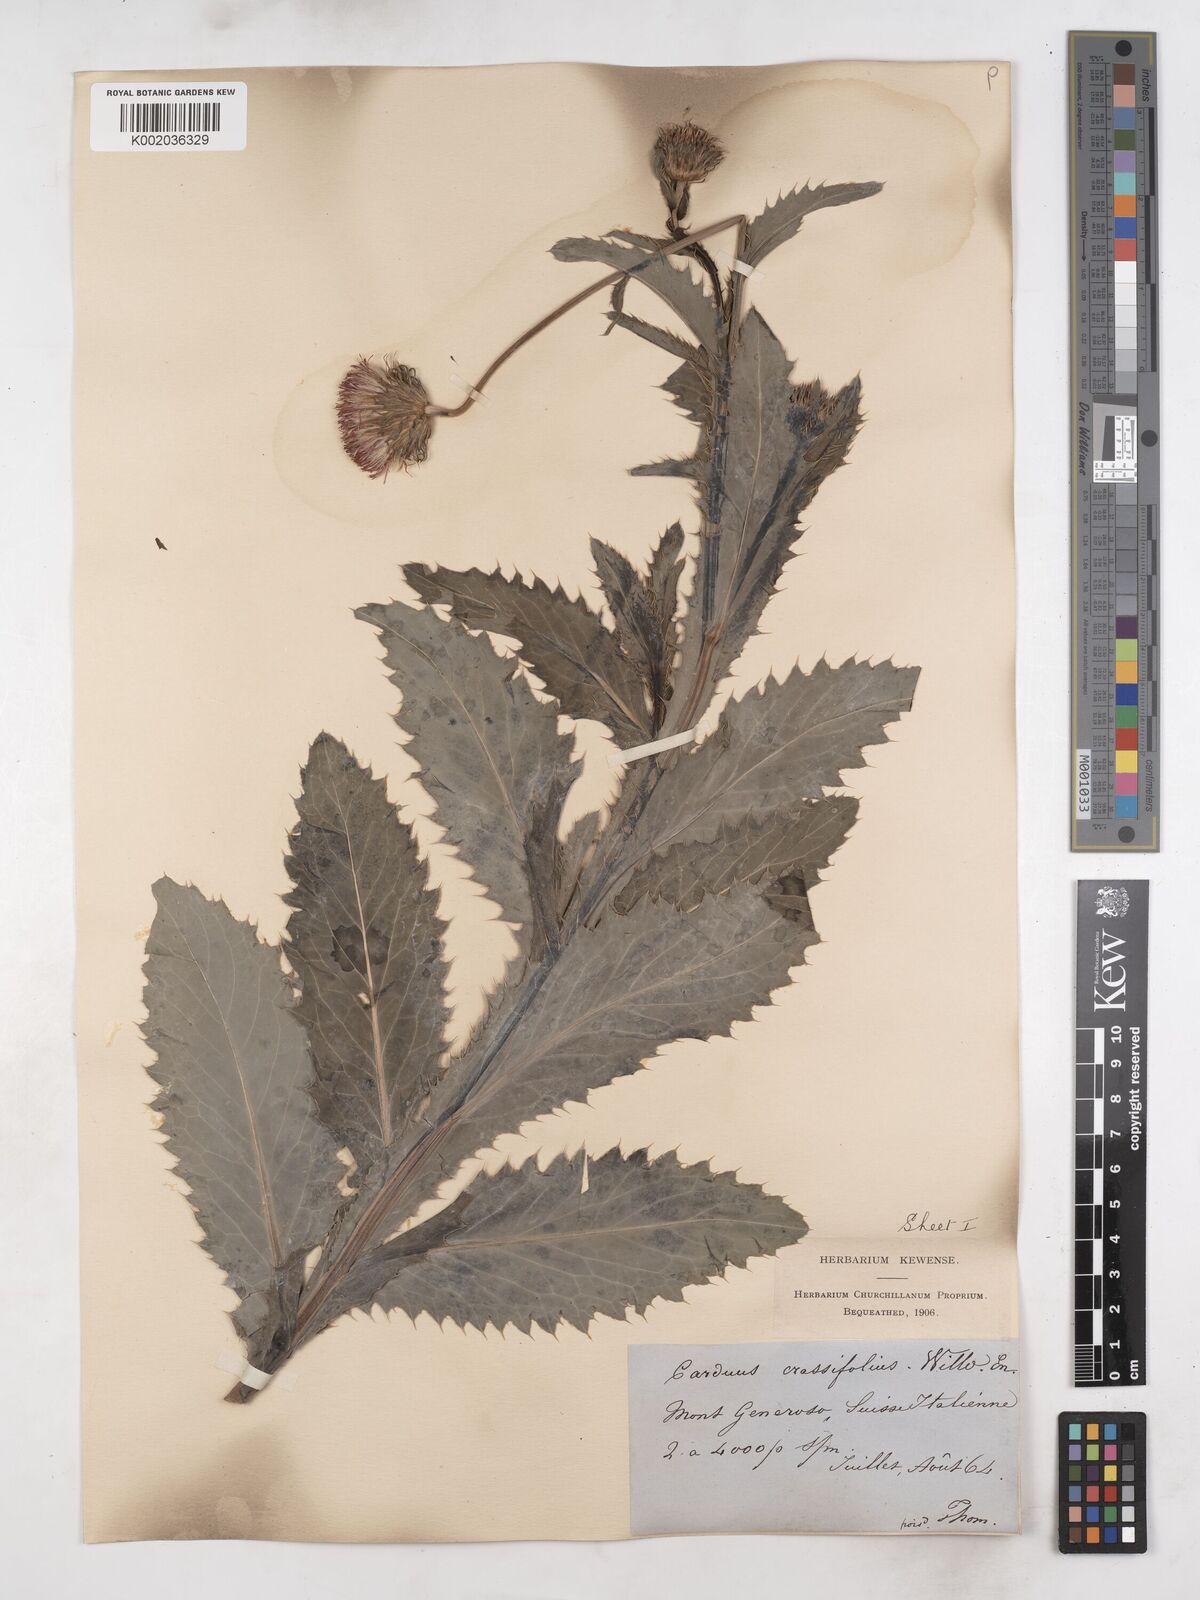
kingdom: Plantae
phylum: Tracheophyta
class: Magnoliopsida
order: Asterales
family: Asteraceae
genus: Carduus
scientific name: Carduus defloratus
